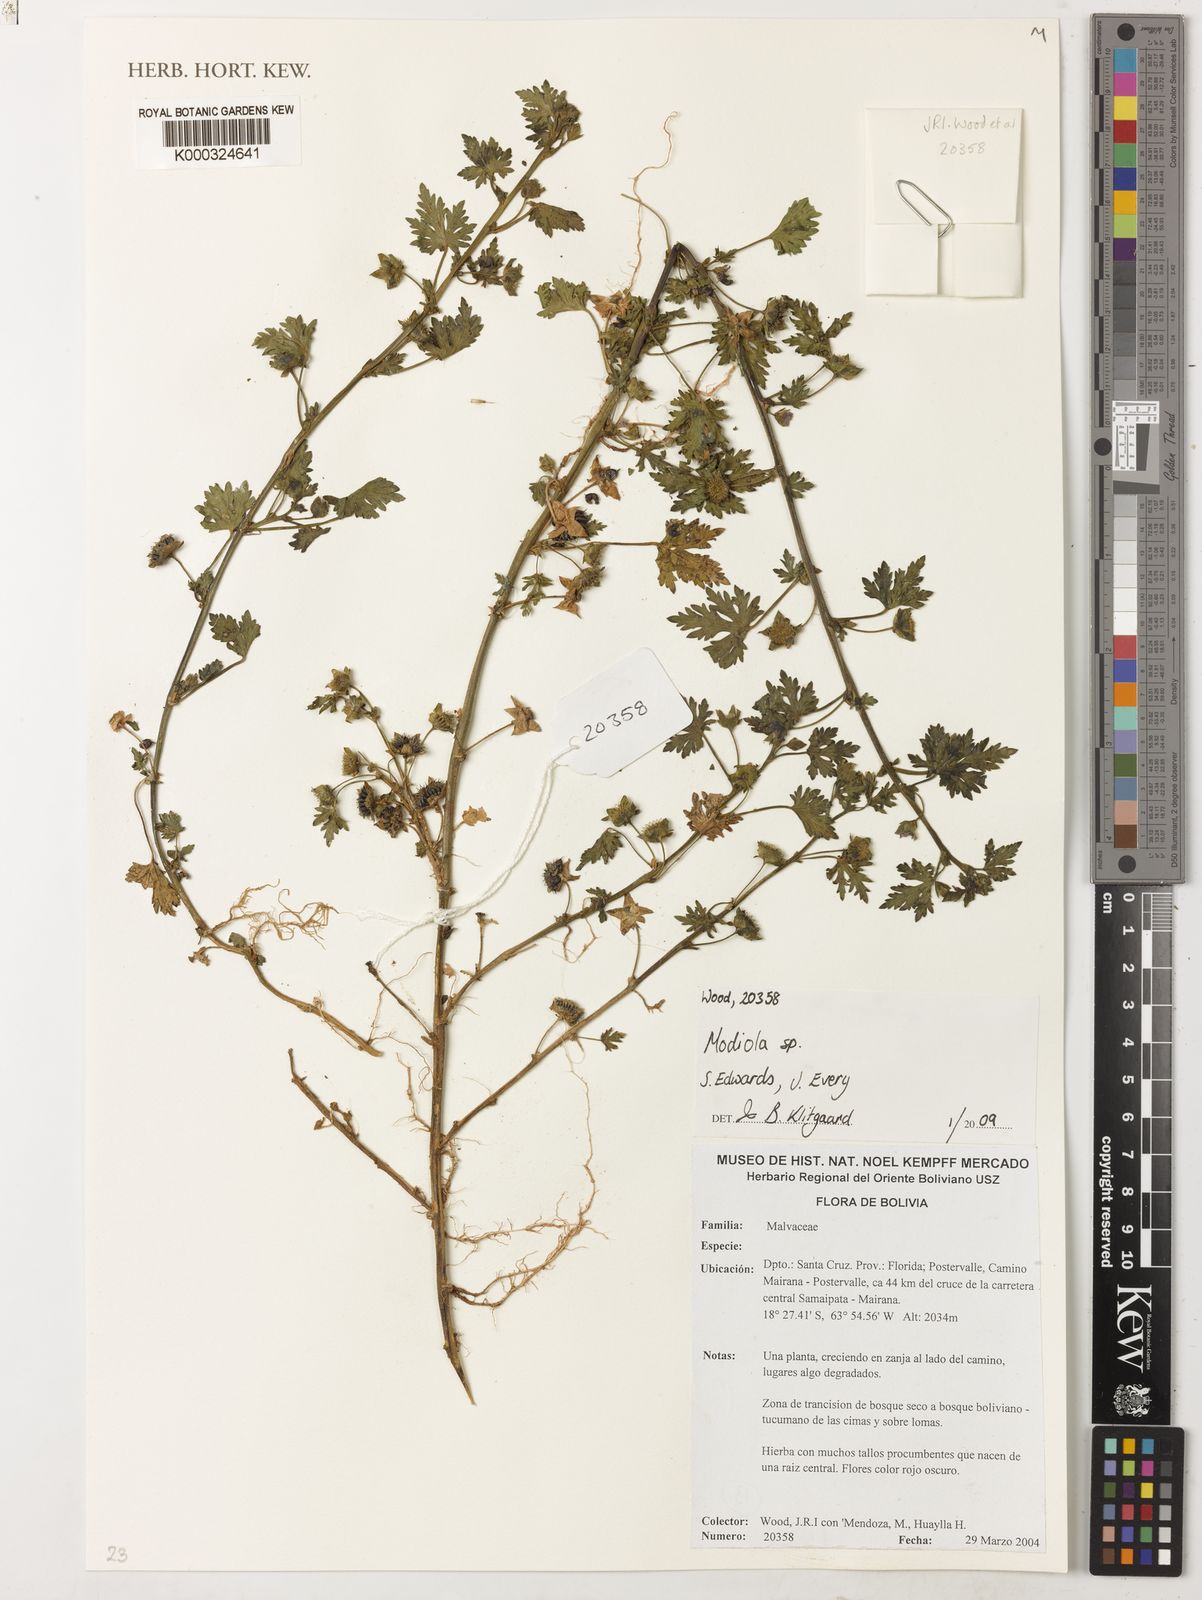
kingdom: Plantae
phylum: Tracheophyta
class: Magnoliopsida
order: Malvales
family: Malvaceae
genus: Modiola
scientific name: Modiola
